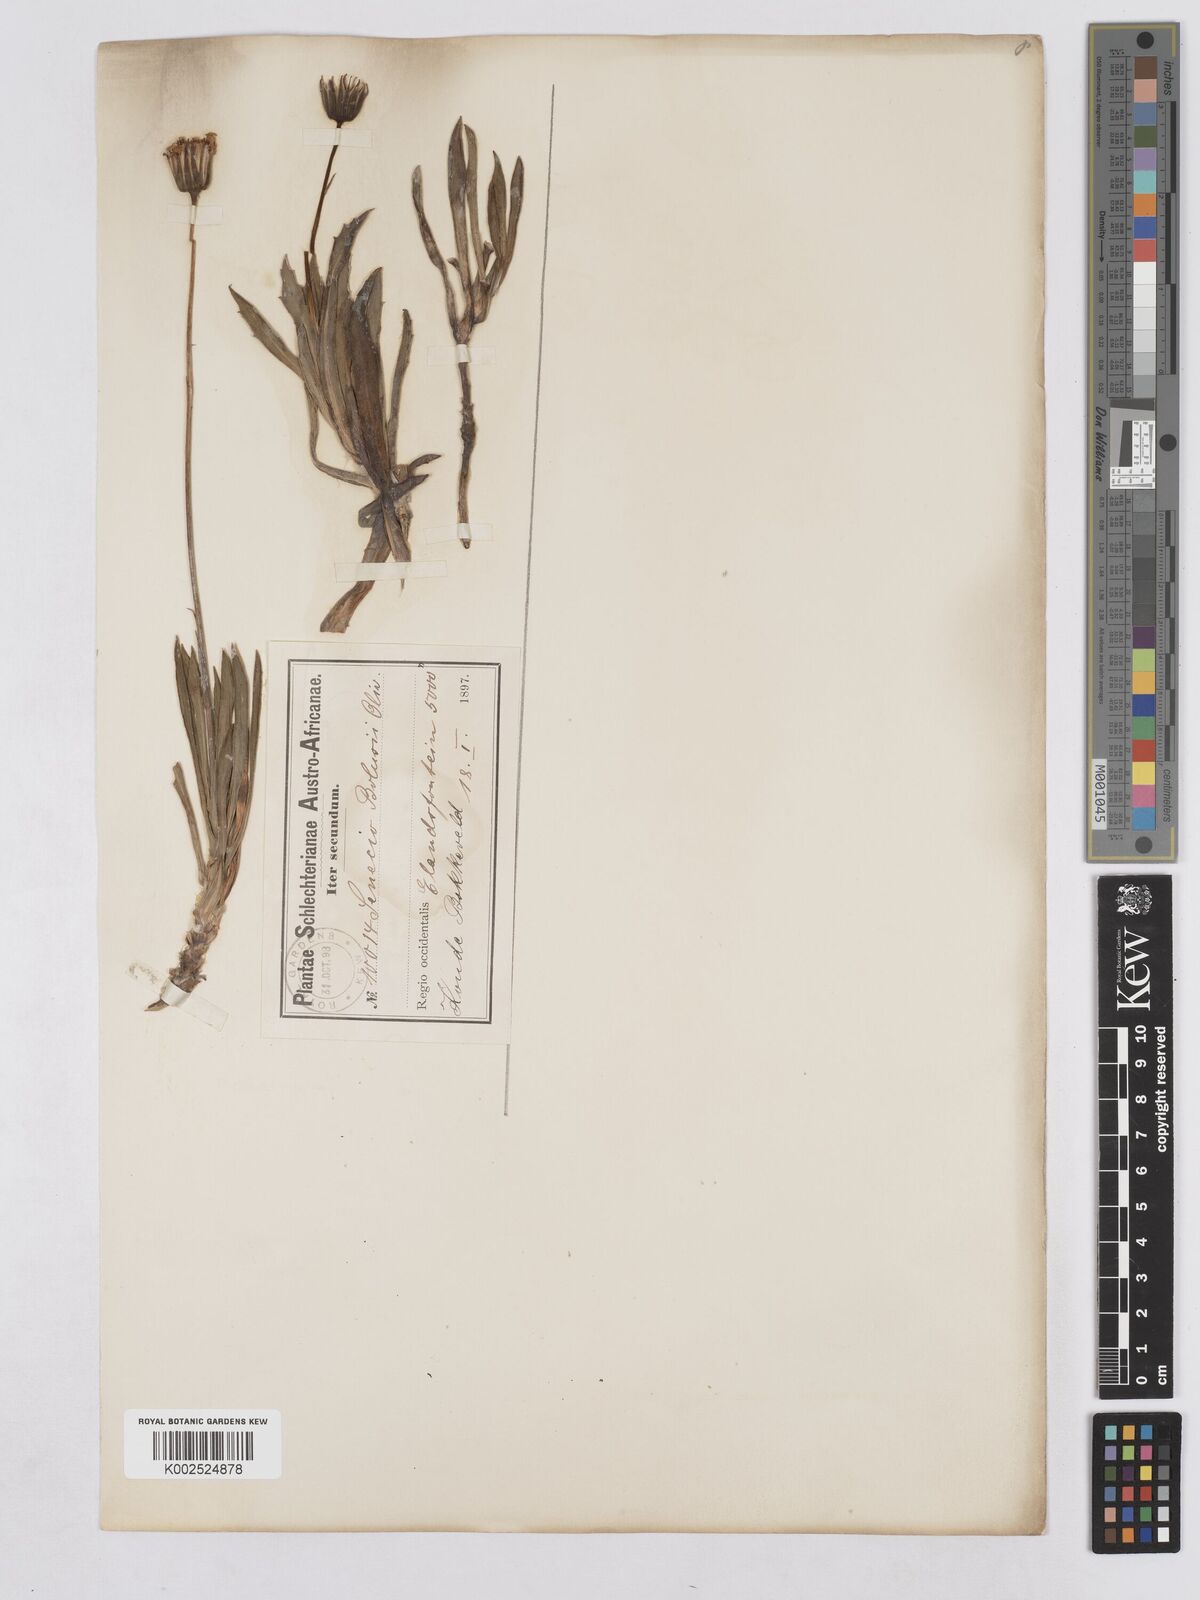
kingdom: Plantae
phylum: Tracheophyta
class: Magnoliopsida
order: Asterales
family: Asteraceae
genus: Phaneroglossa
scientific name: Phaneroglossa bolusii
